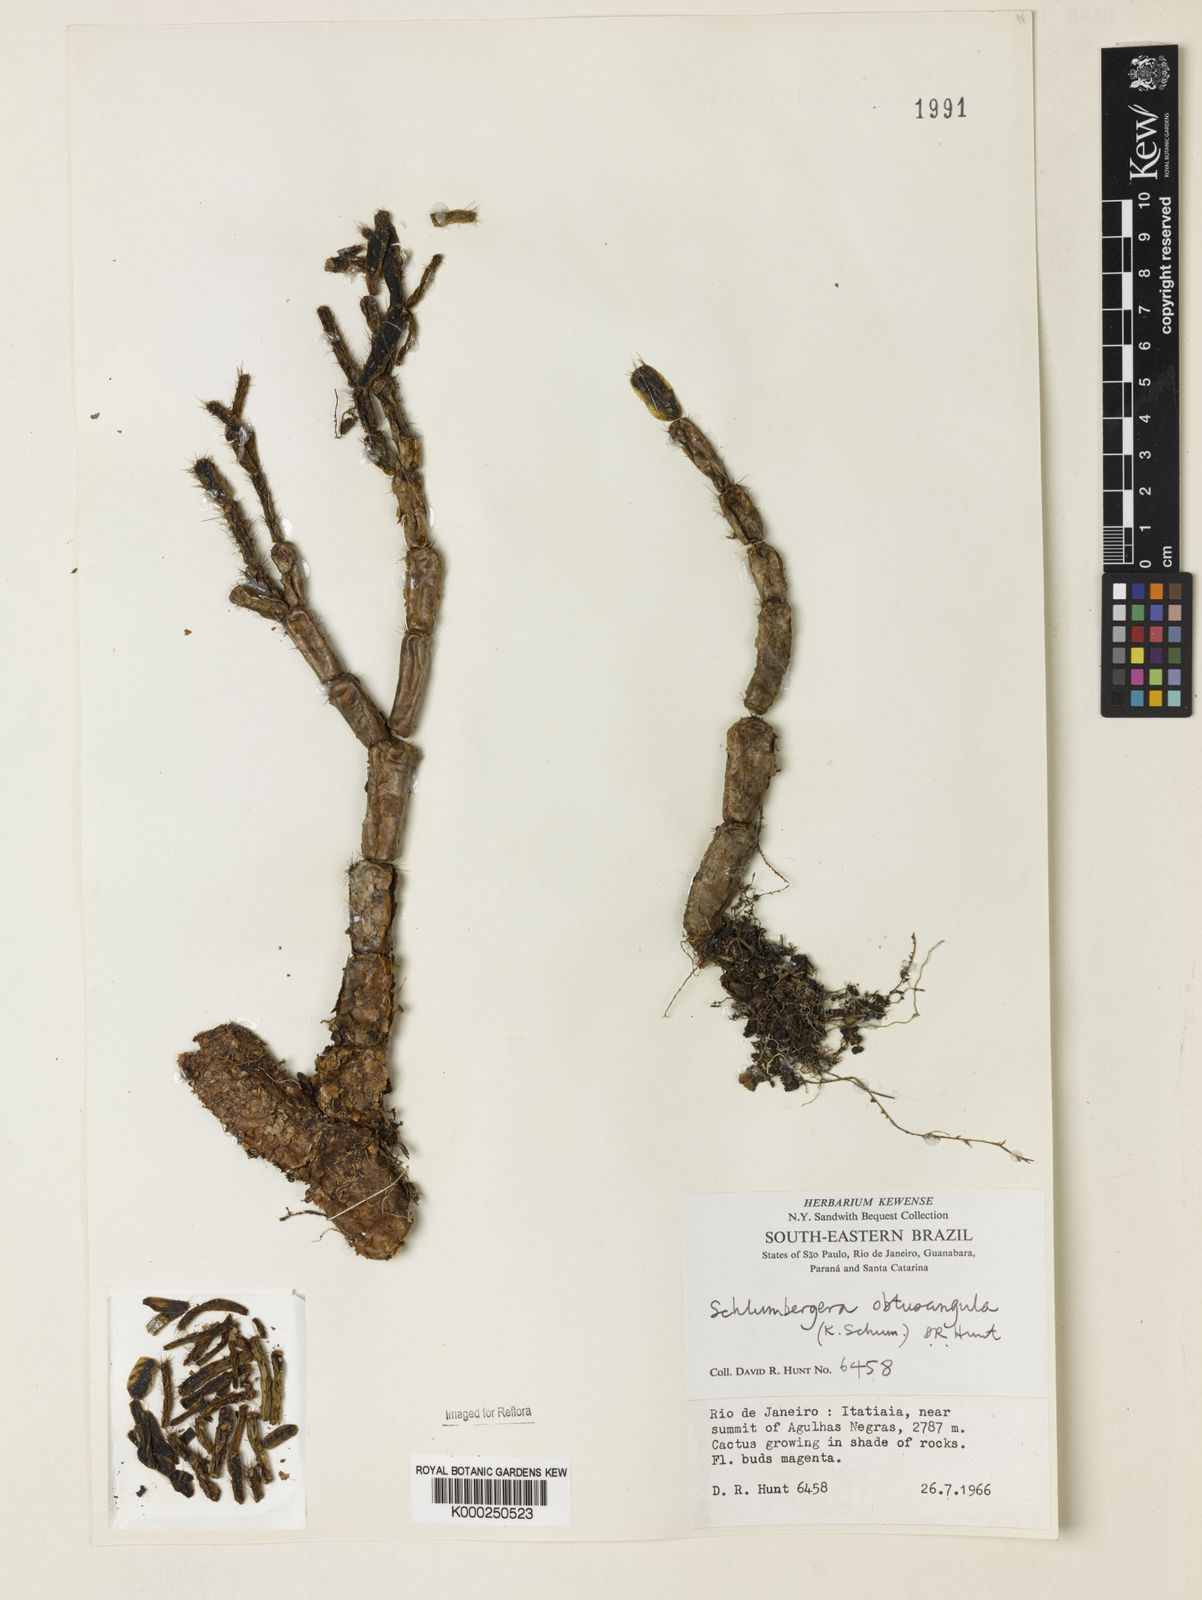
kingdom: Plantae
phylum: Tracheophyta
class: Magnoliopsida
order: Caryophyllales
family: Cactaceae
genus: Schlumbergera
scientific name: Schlumbergera
